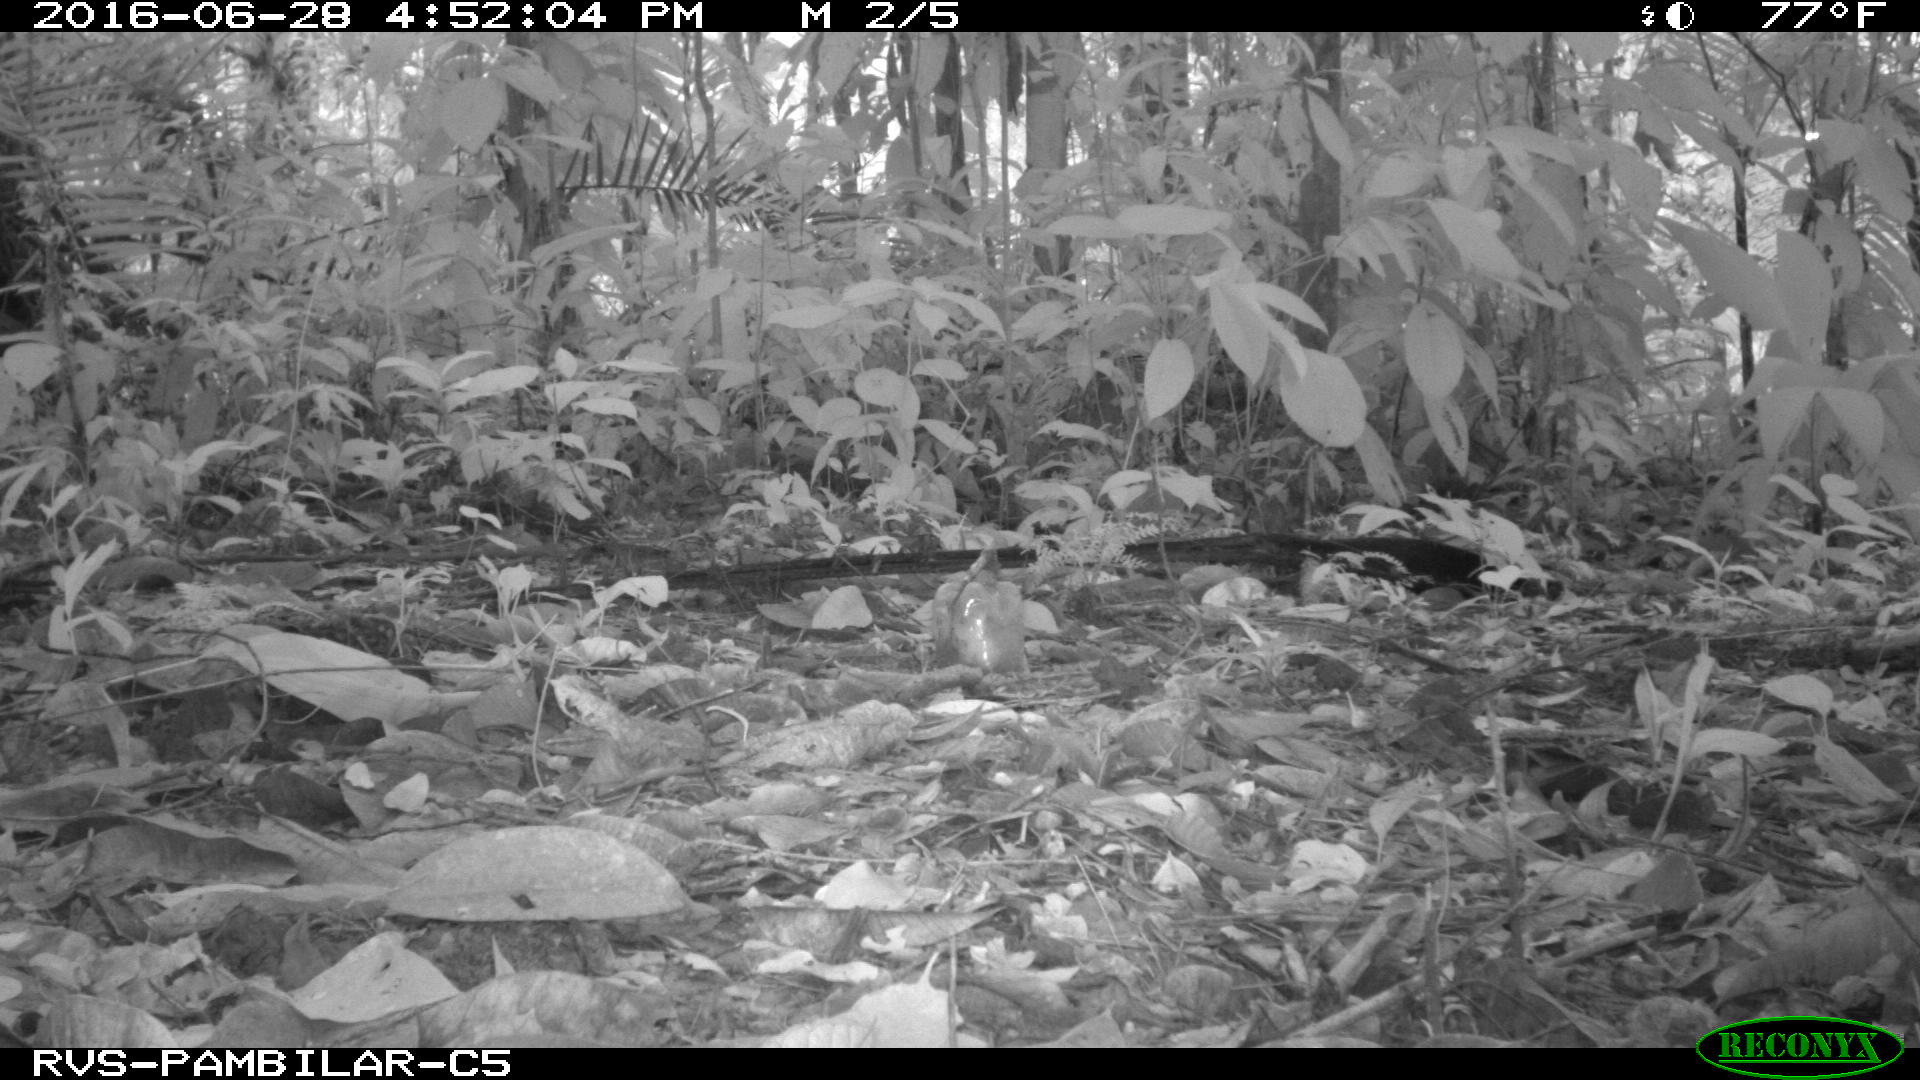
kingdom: Animalia
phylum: Chordata
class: Mammalia
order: Rodentia
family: Dasyproctidae
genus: Dasyprocta
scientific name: Dasyprocta punctata
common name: Central american agouti
